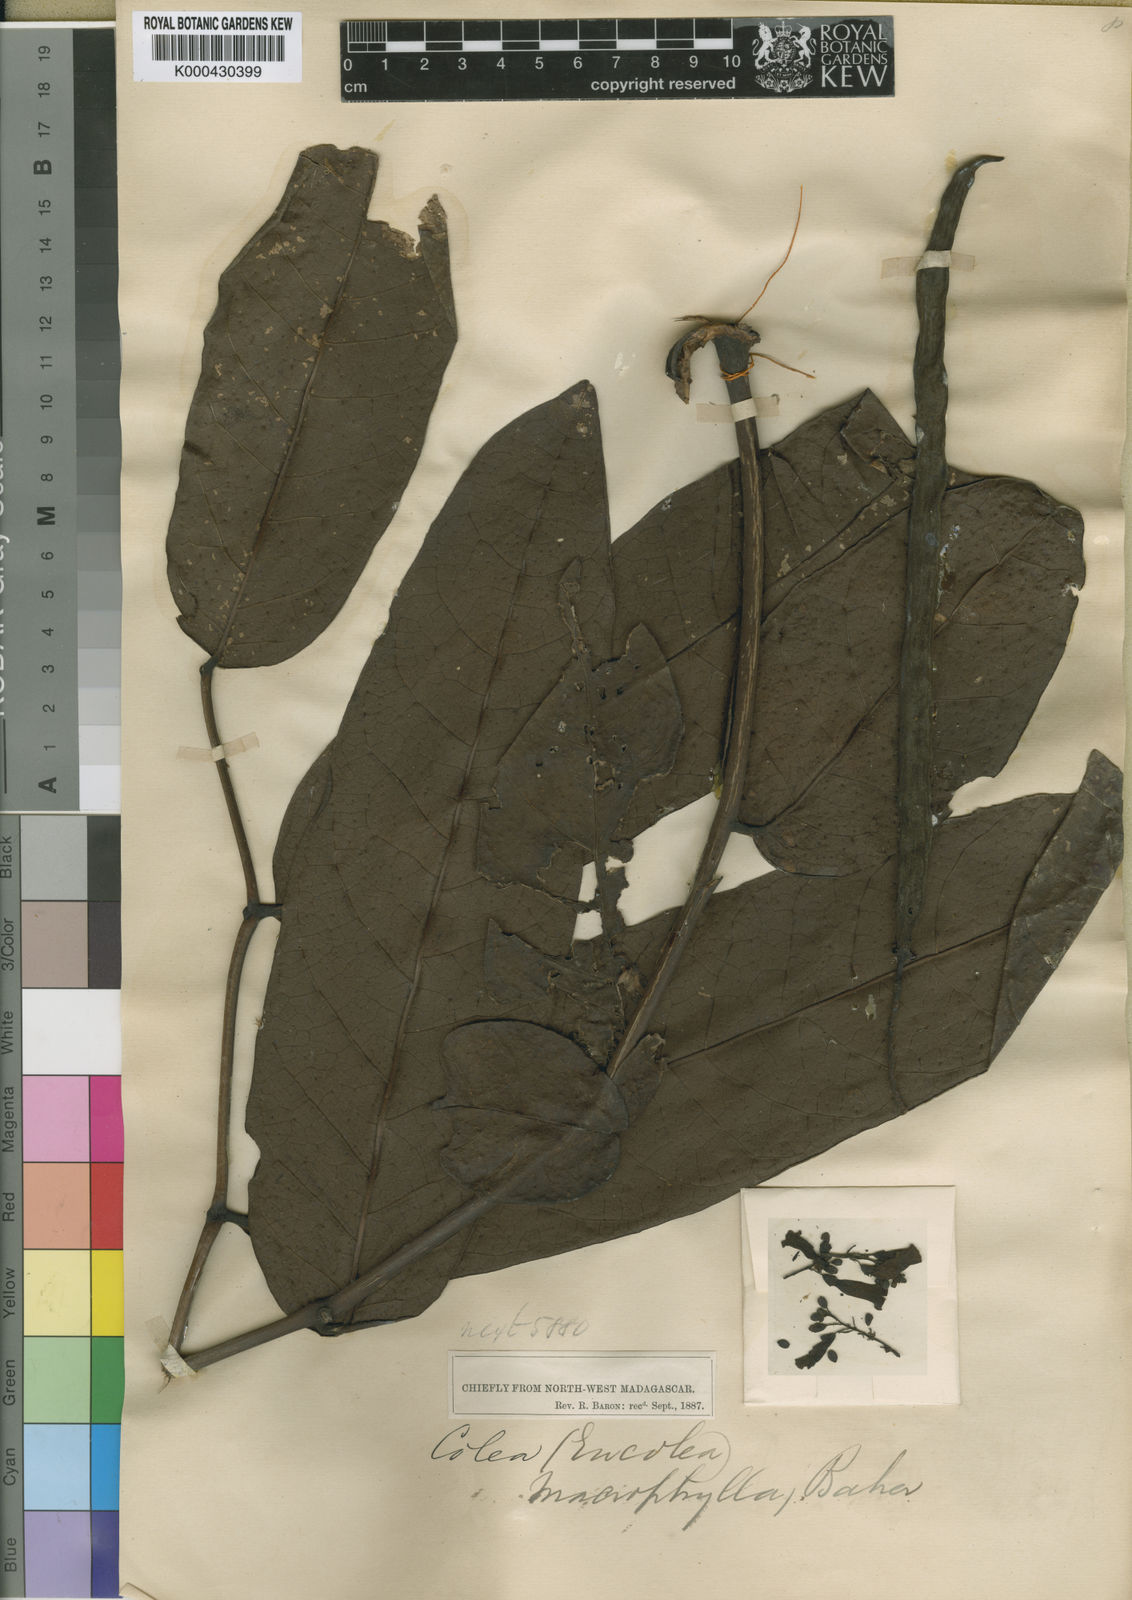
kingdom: Plantae
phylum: Tracheophyta
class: Magnoliopsida
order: Lamiales
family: Bignoniaceae
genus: Colea
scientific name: Colea
